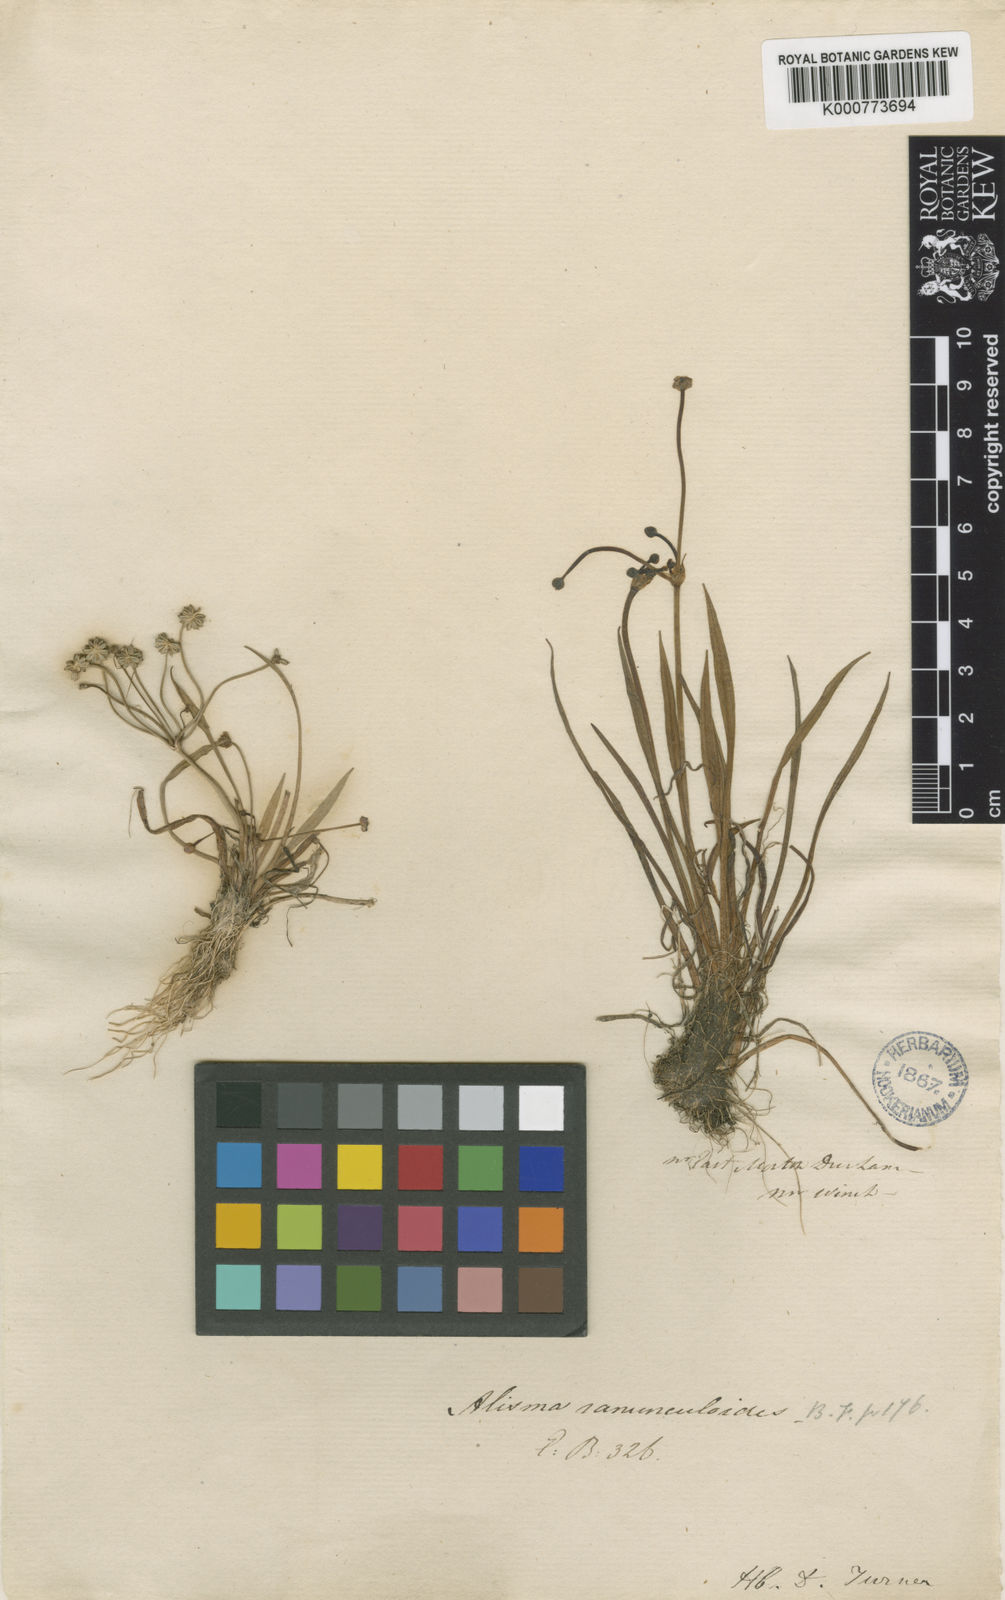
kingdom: Plantae
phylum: Tracheophyta
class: Liliopsida
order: Alismatales
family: Alismataceae
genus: Baldellia
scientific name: Baldellia ranunculoides
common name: Lesser water-plantain
